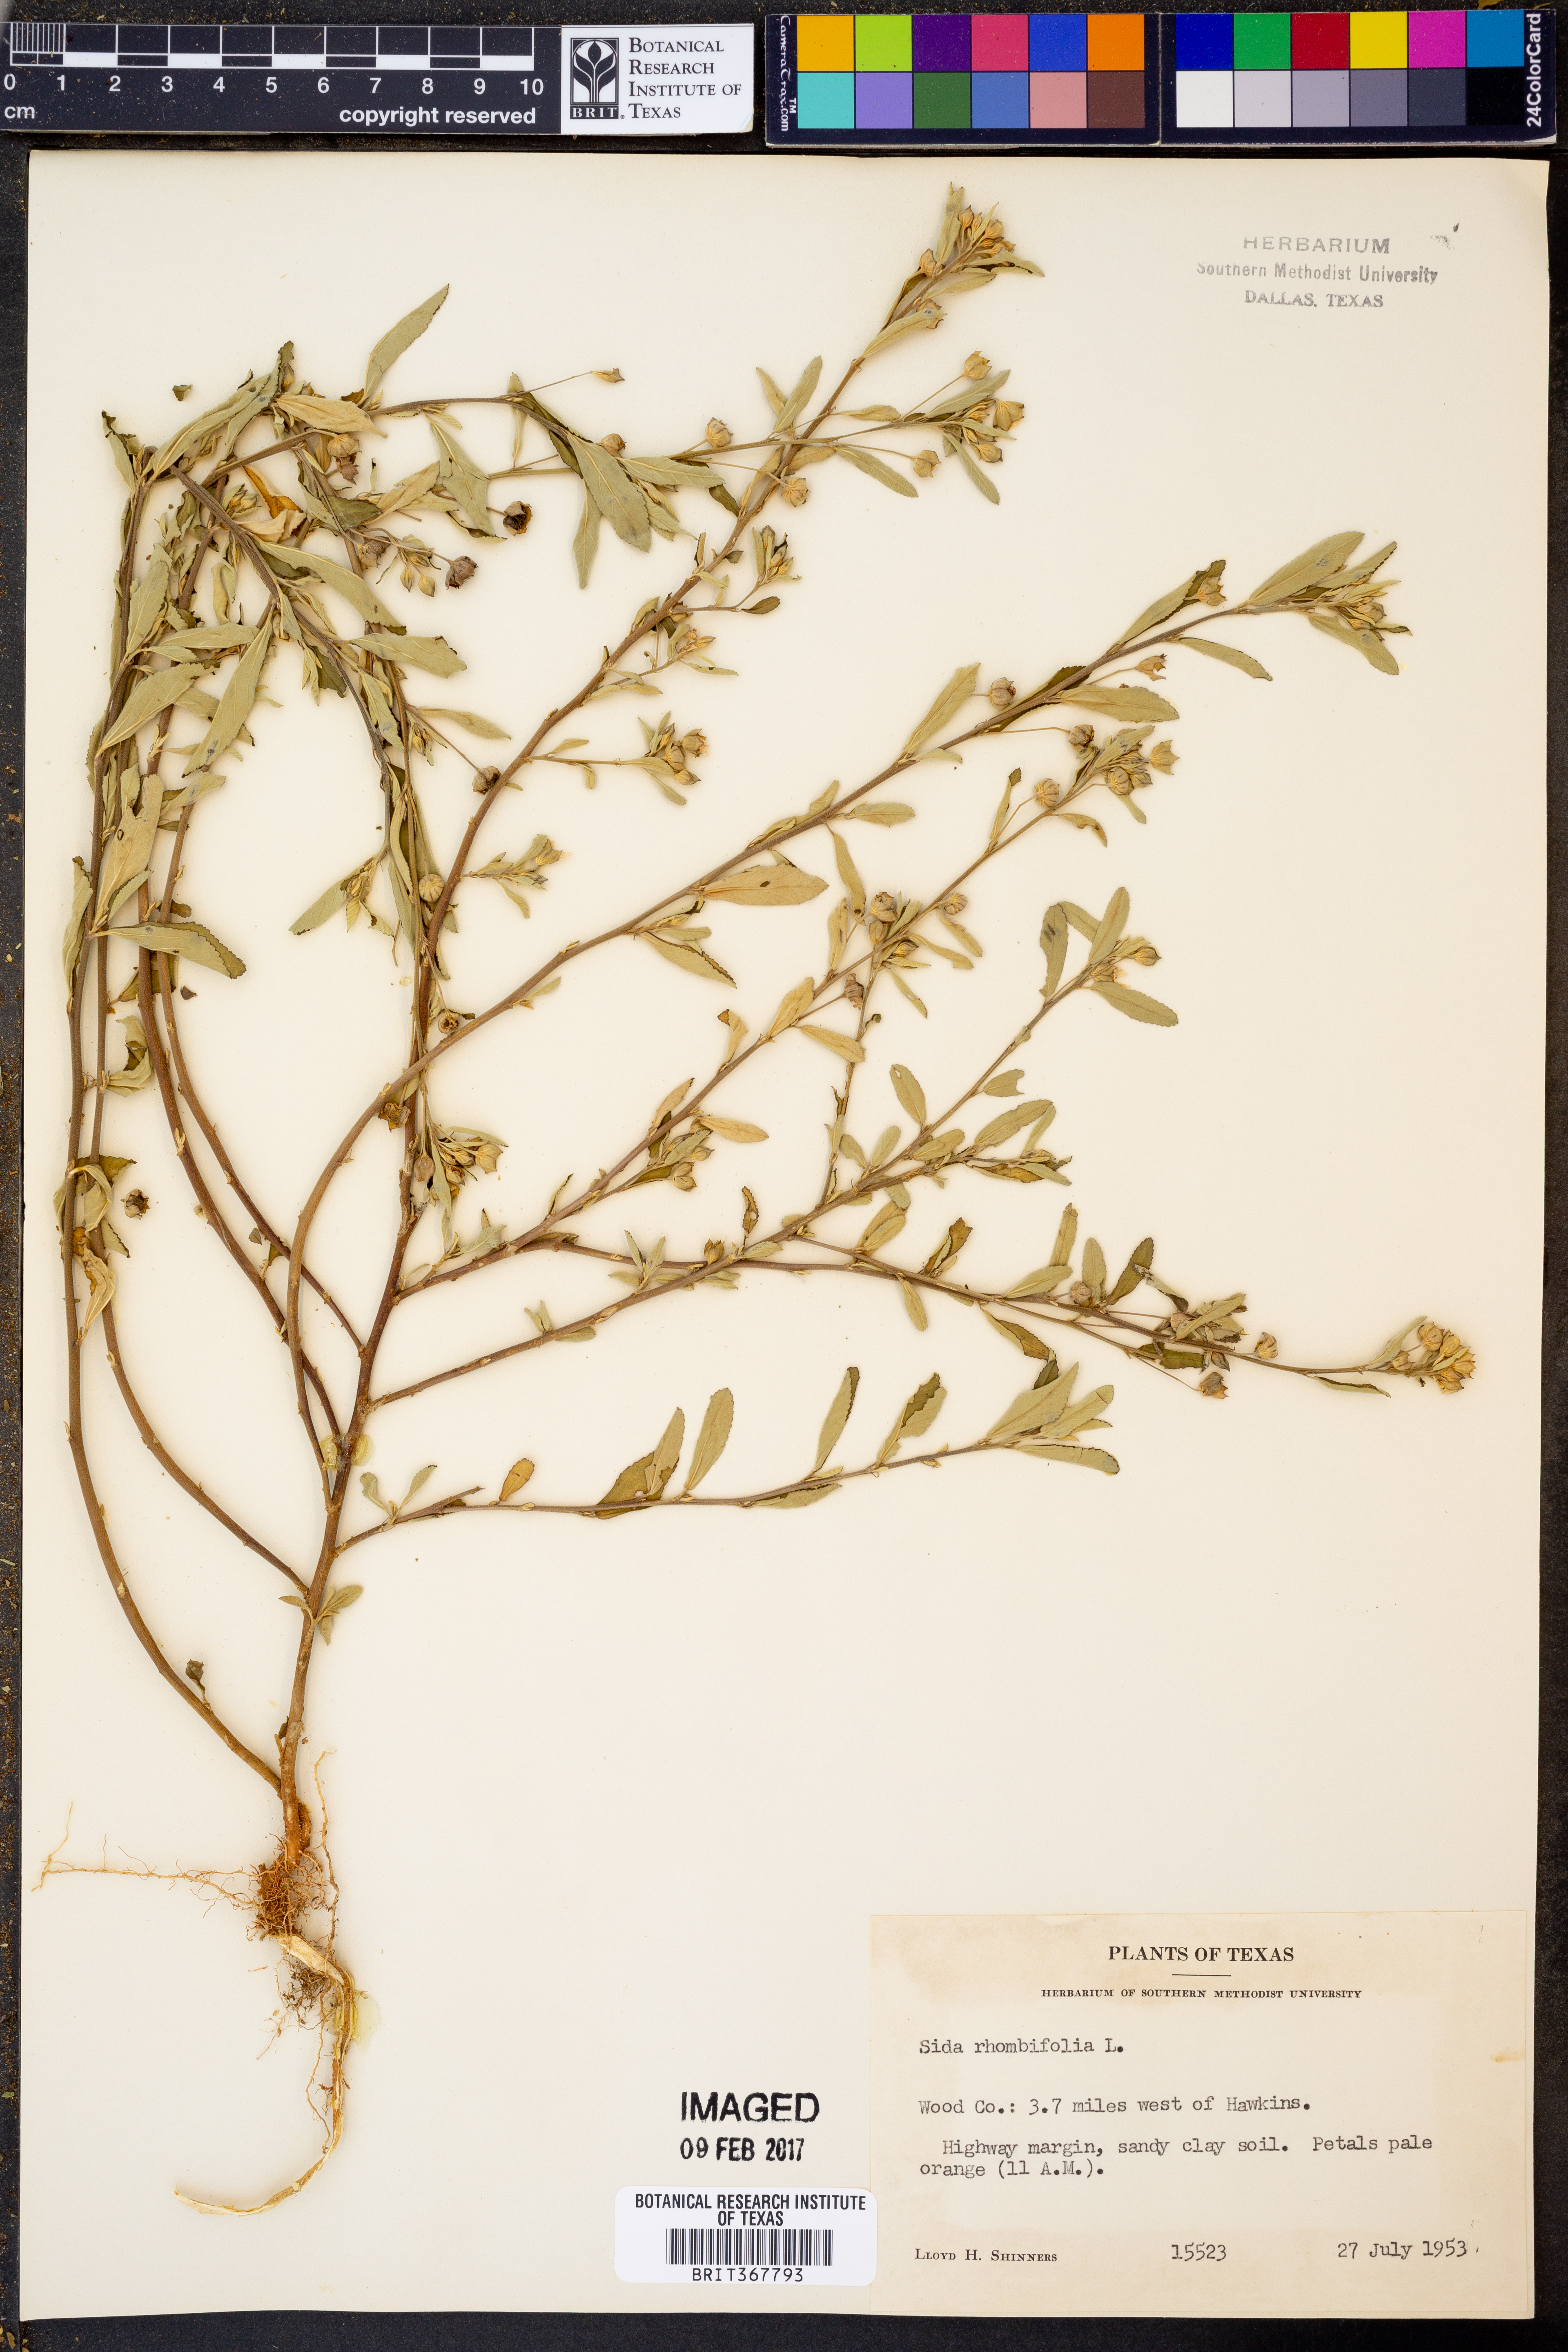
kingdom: Plantae
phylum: Tracheophyta
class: Magnoliopsida
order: Malvales
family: Malvaceae
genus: Sida
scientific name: Sida rhombifolia
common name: Queensland-hemp
